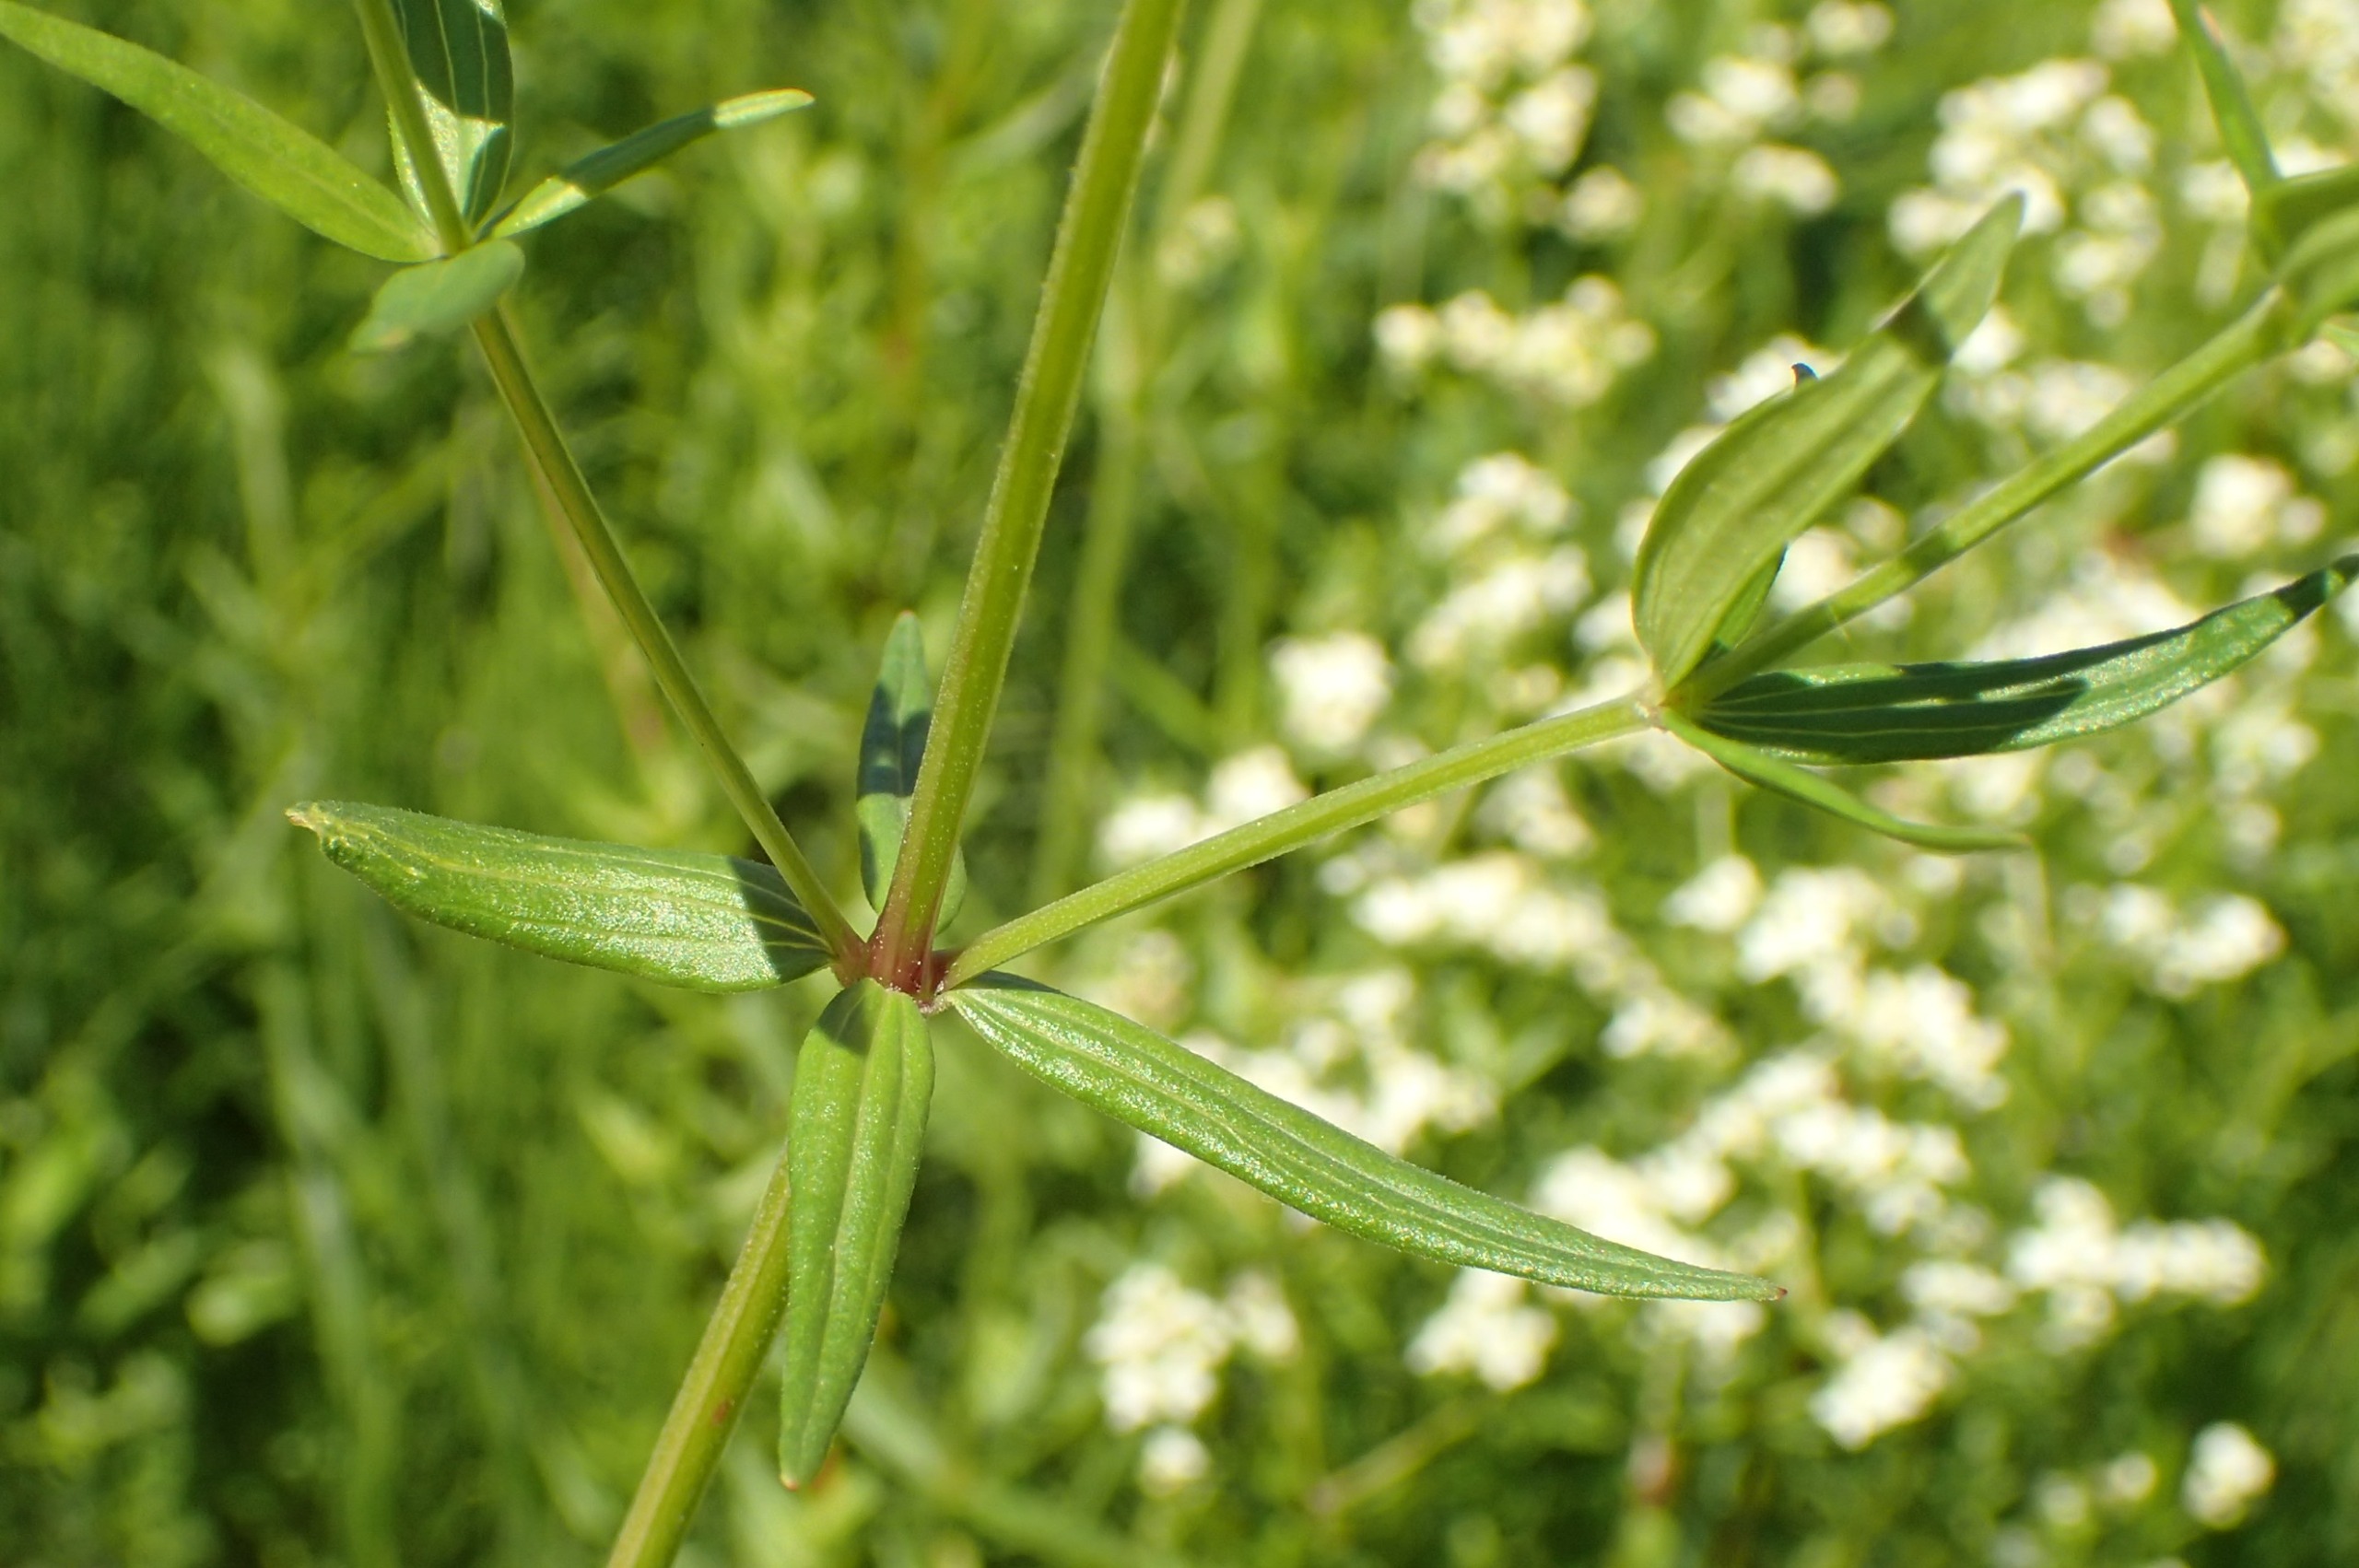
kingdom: Plantae
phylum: Tracheophyta
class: Magnoliopsida
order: Gentianales
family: Rubiaceae
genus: Galium
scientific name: Galium boreale
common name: Trenervet snerre
